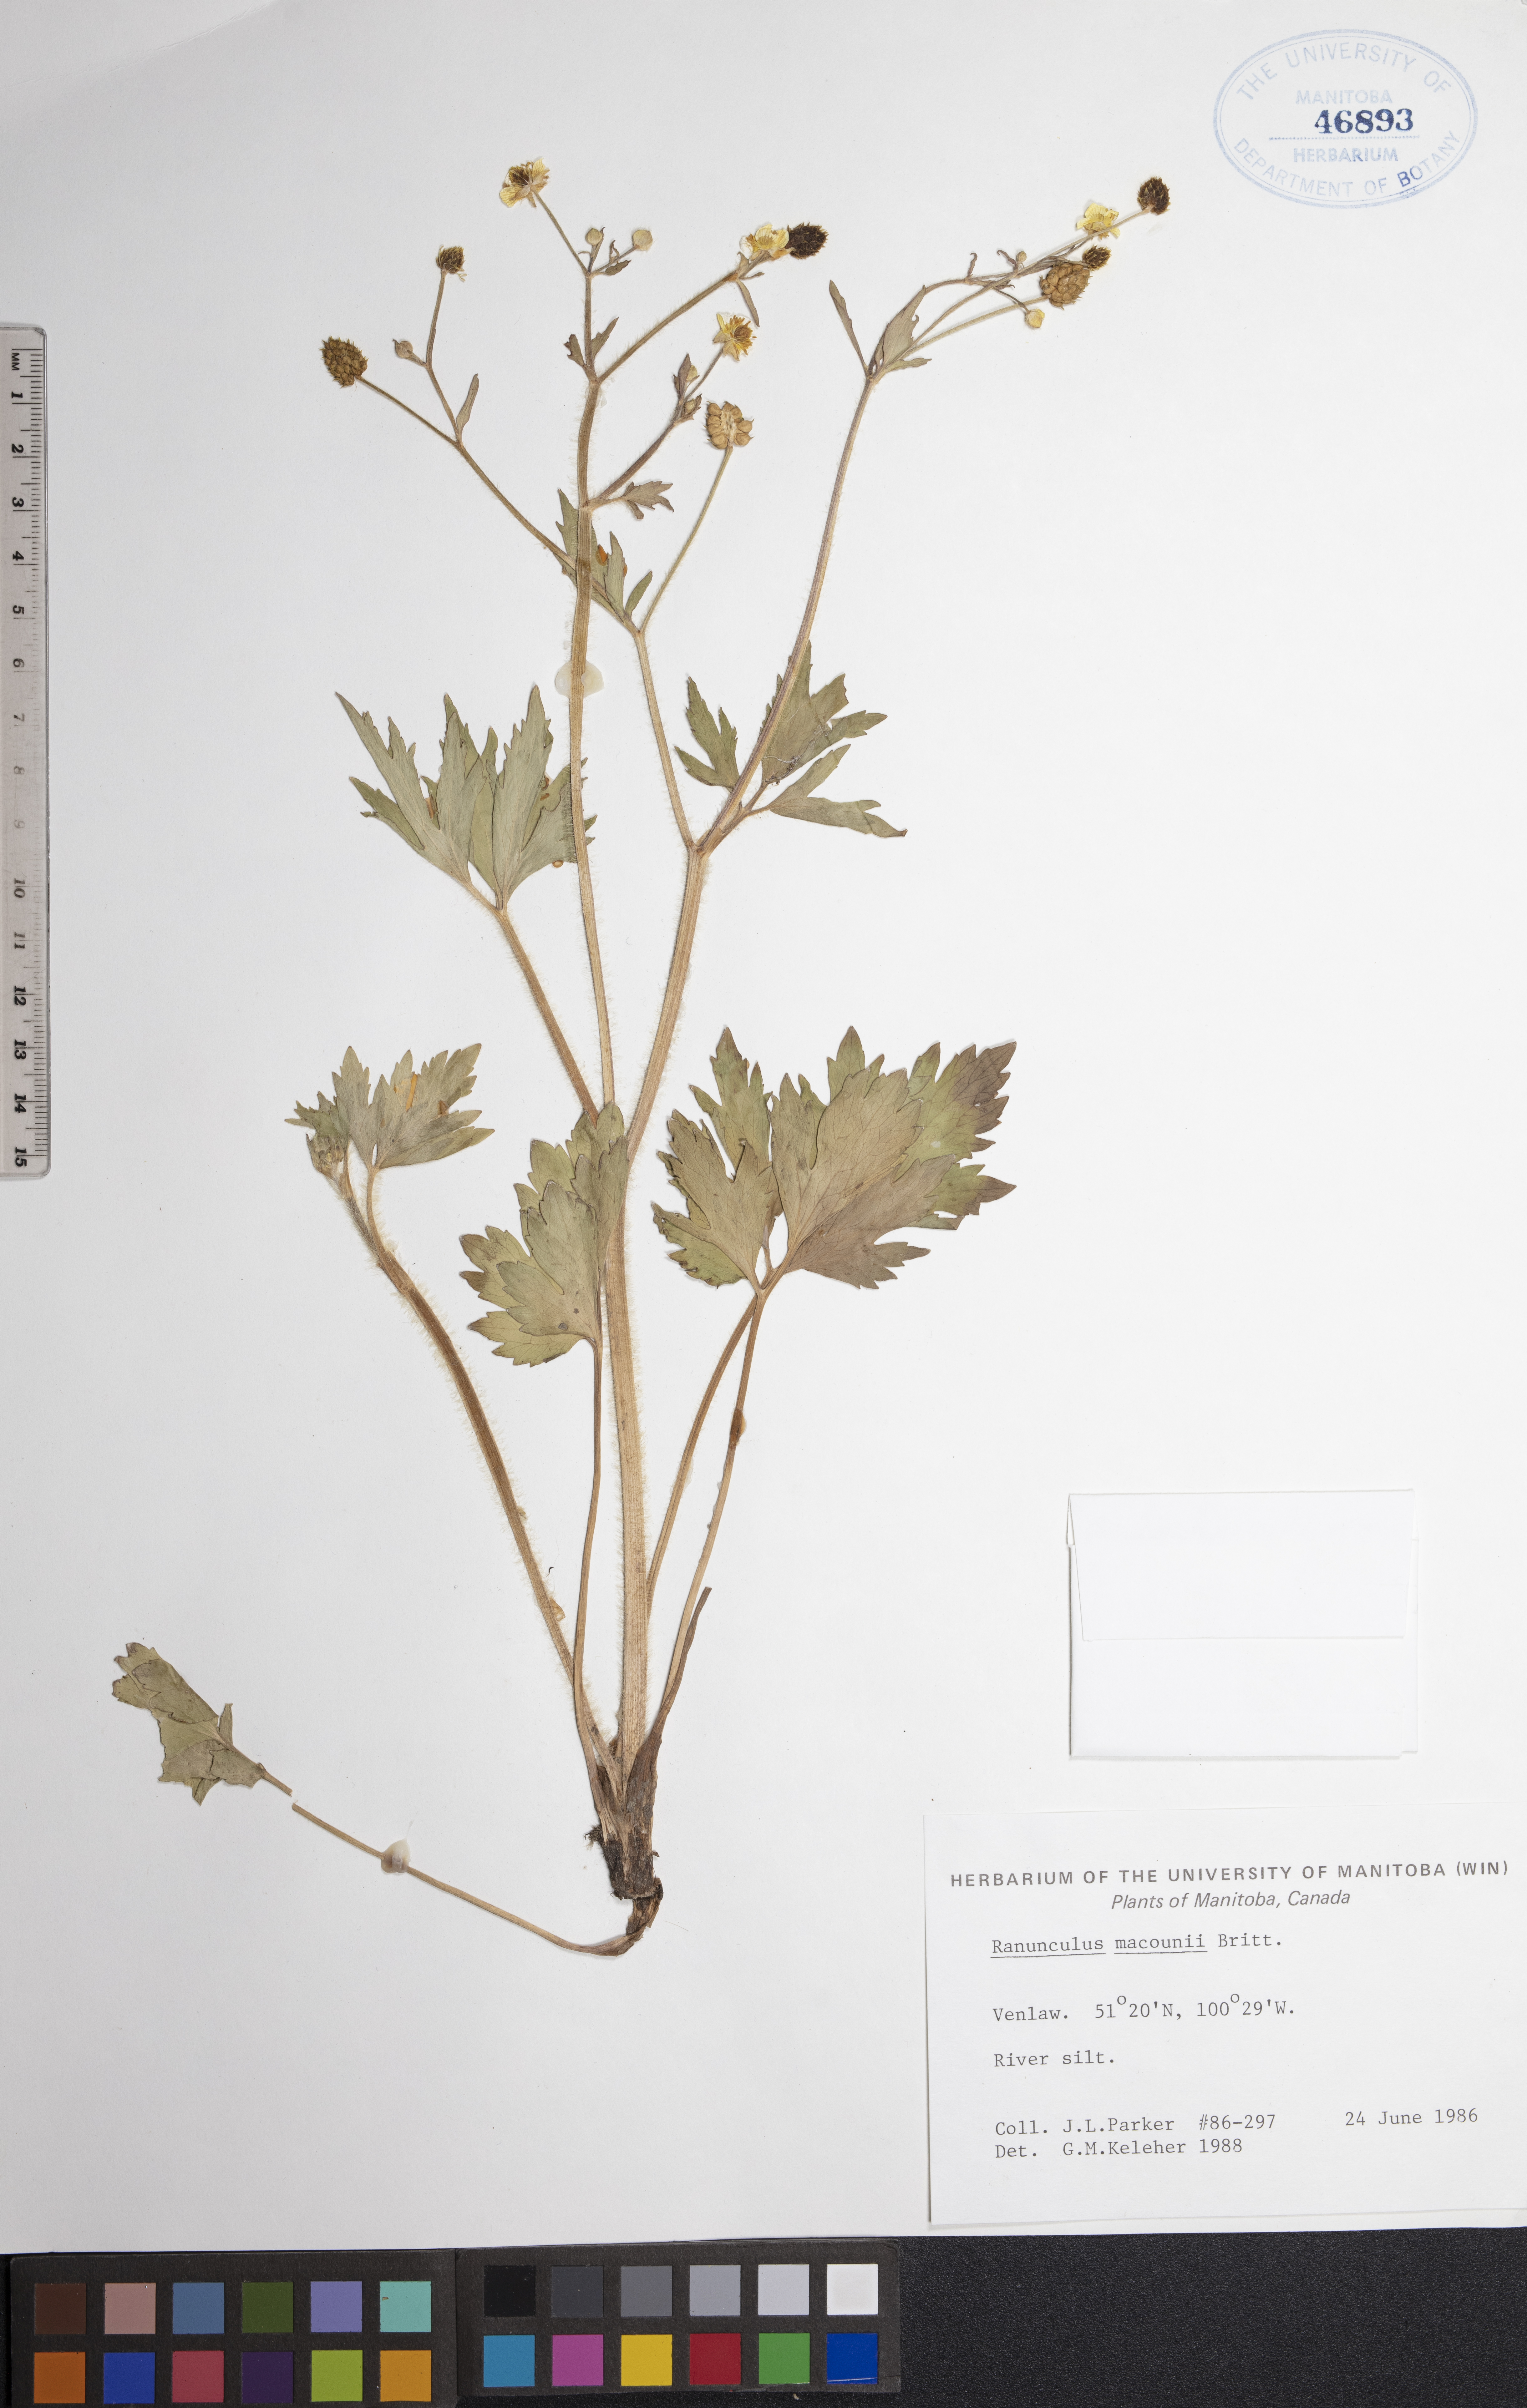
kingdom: Plantae
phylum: Tracheophyta
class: Magnoliopsida
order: Ranunculales
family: Ranunculaceae
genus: Ranunculus
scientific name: Ranunculus macounii
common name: Macoun's buttercup
